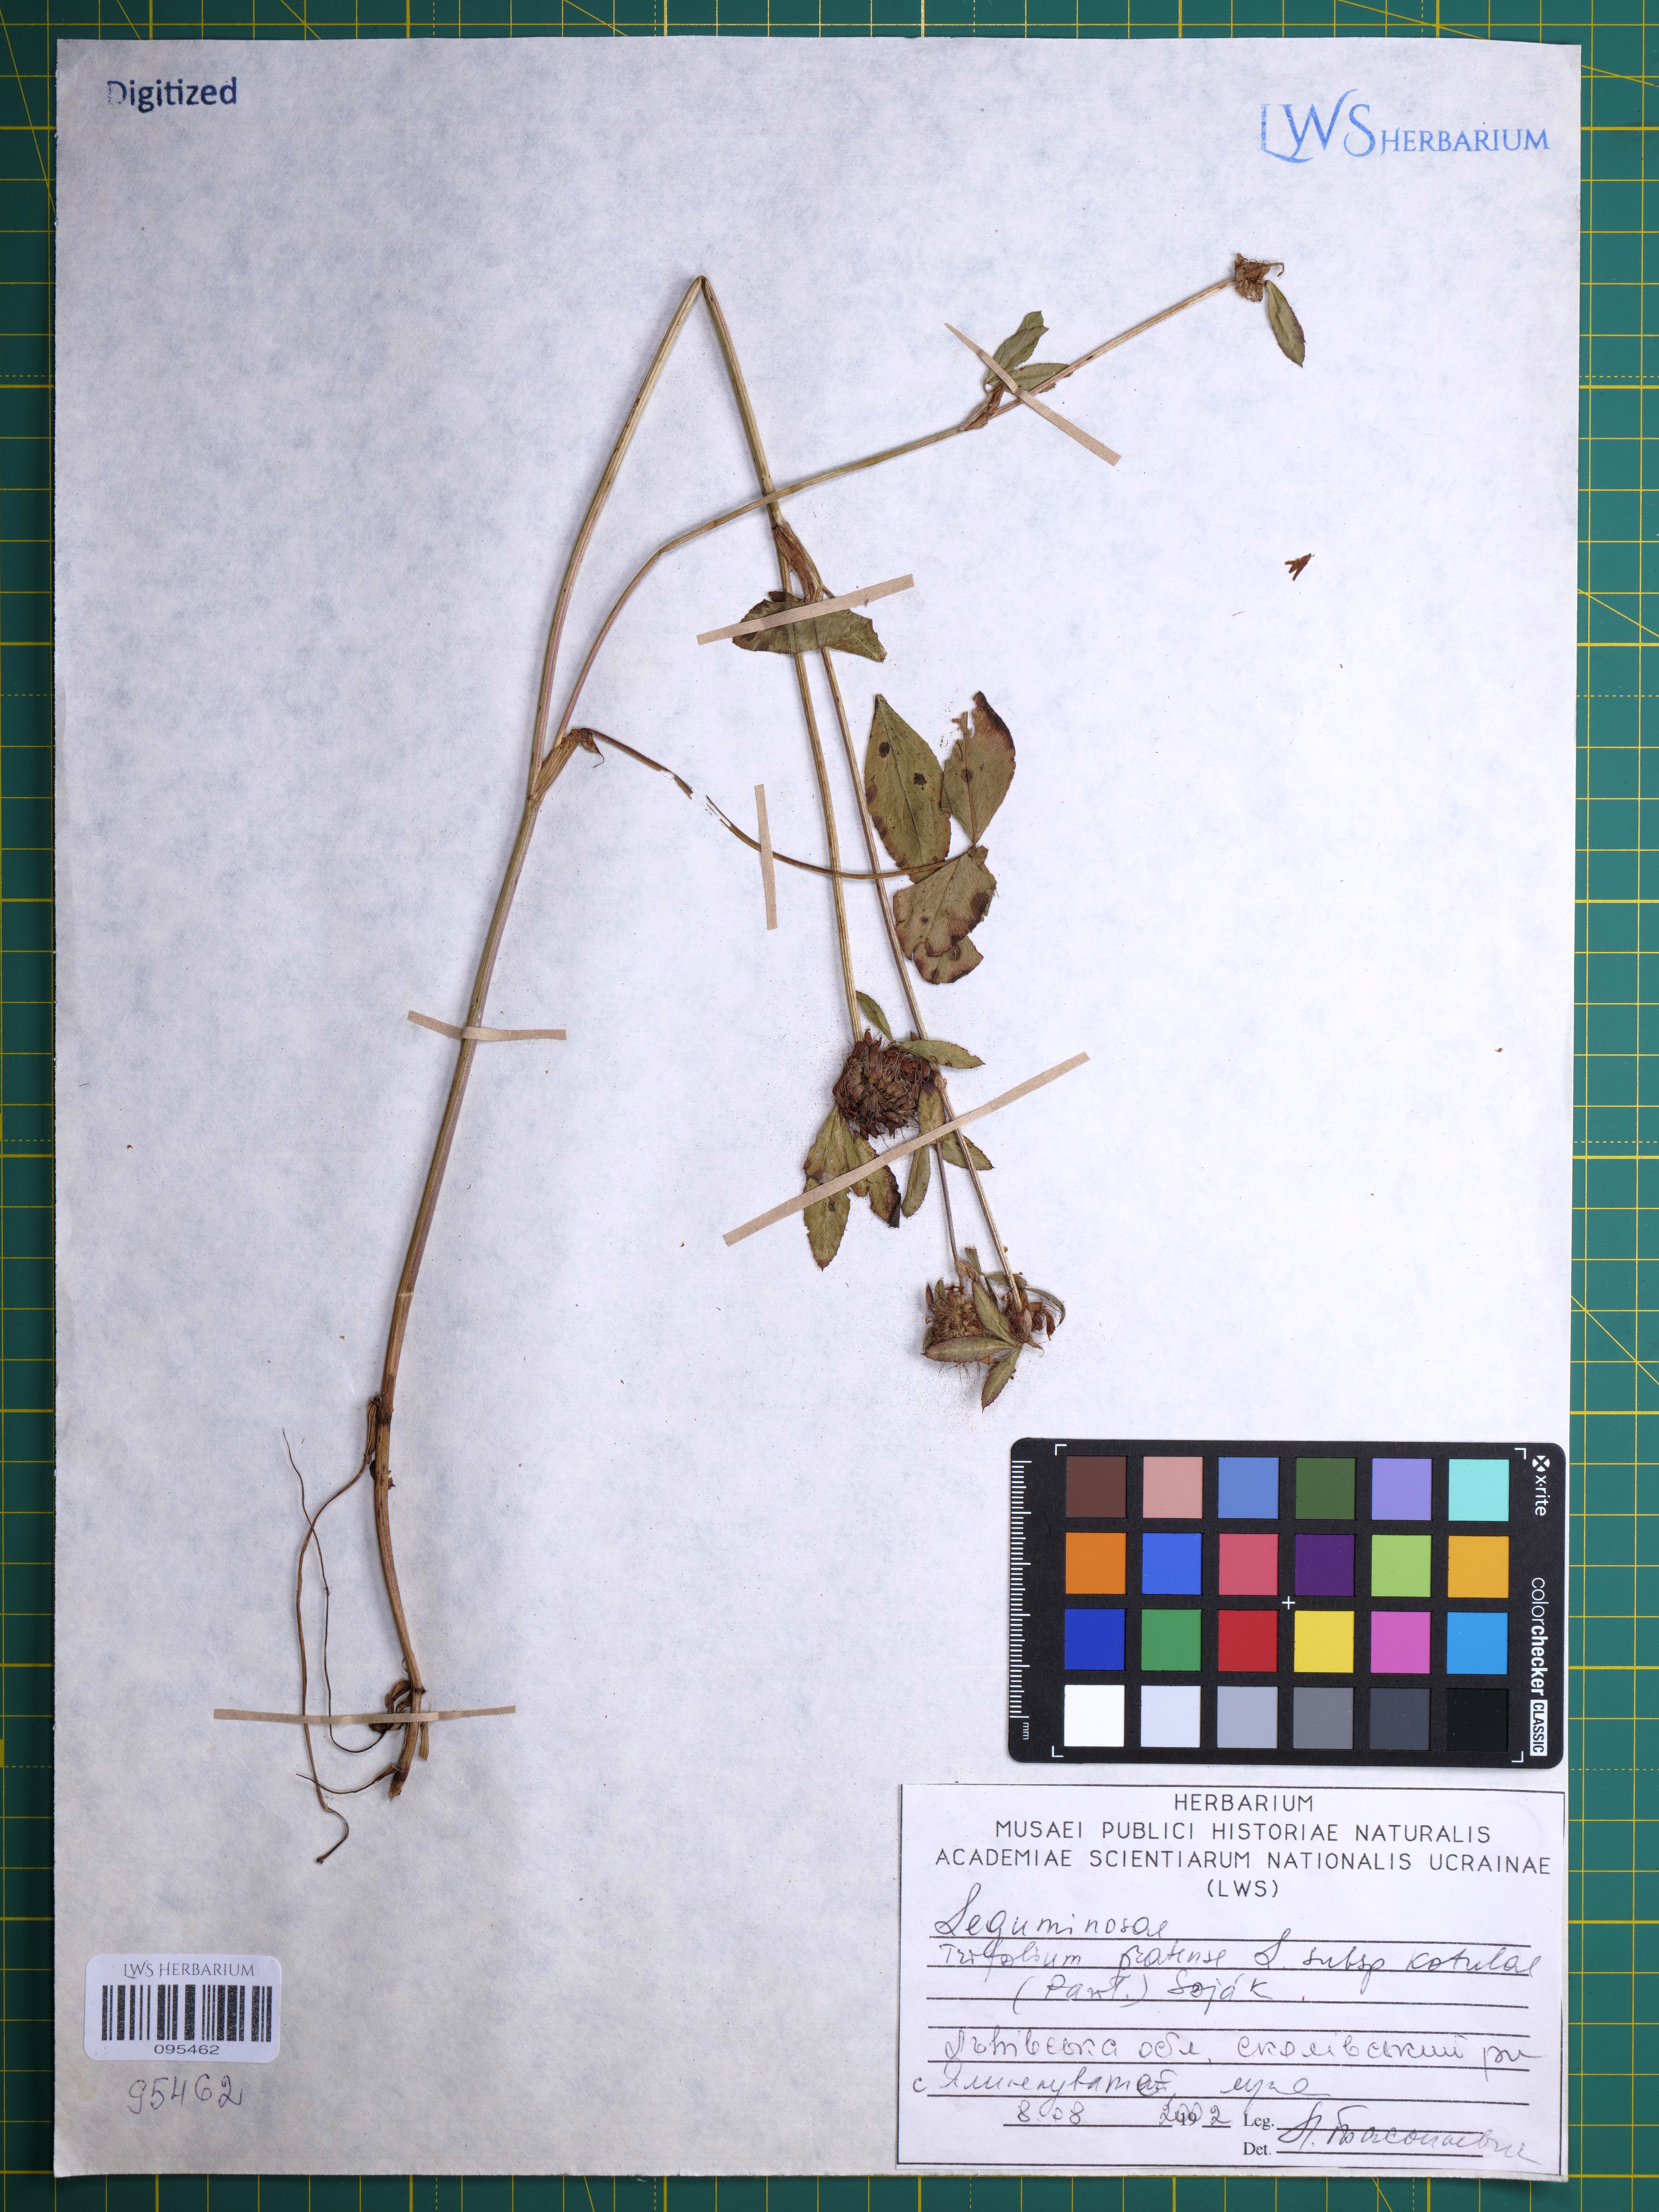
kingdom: Plantae
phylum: Tracheophyta
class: Magnoliopsida
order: Fabales
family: Fabaceae
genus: Trifolium
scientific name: Trifolium pratense
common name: Red clover
